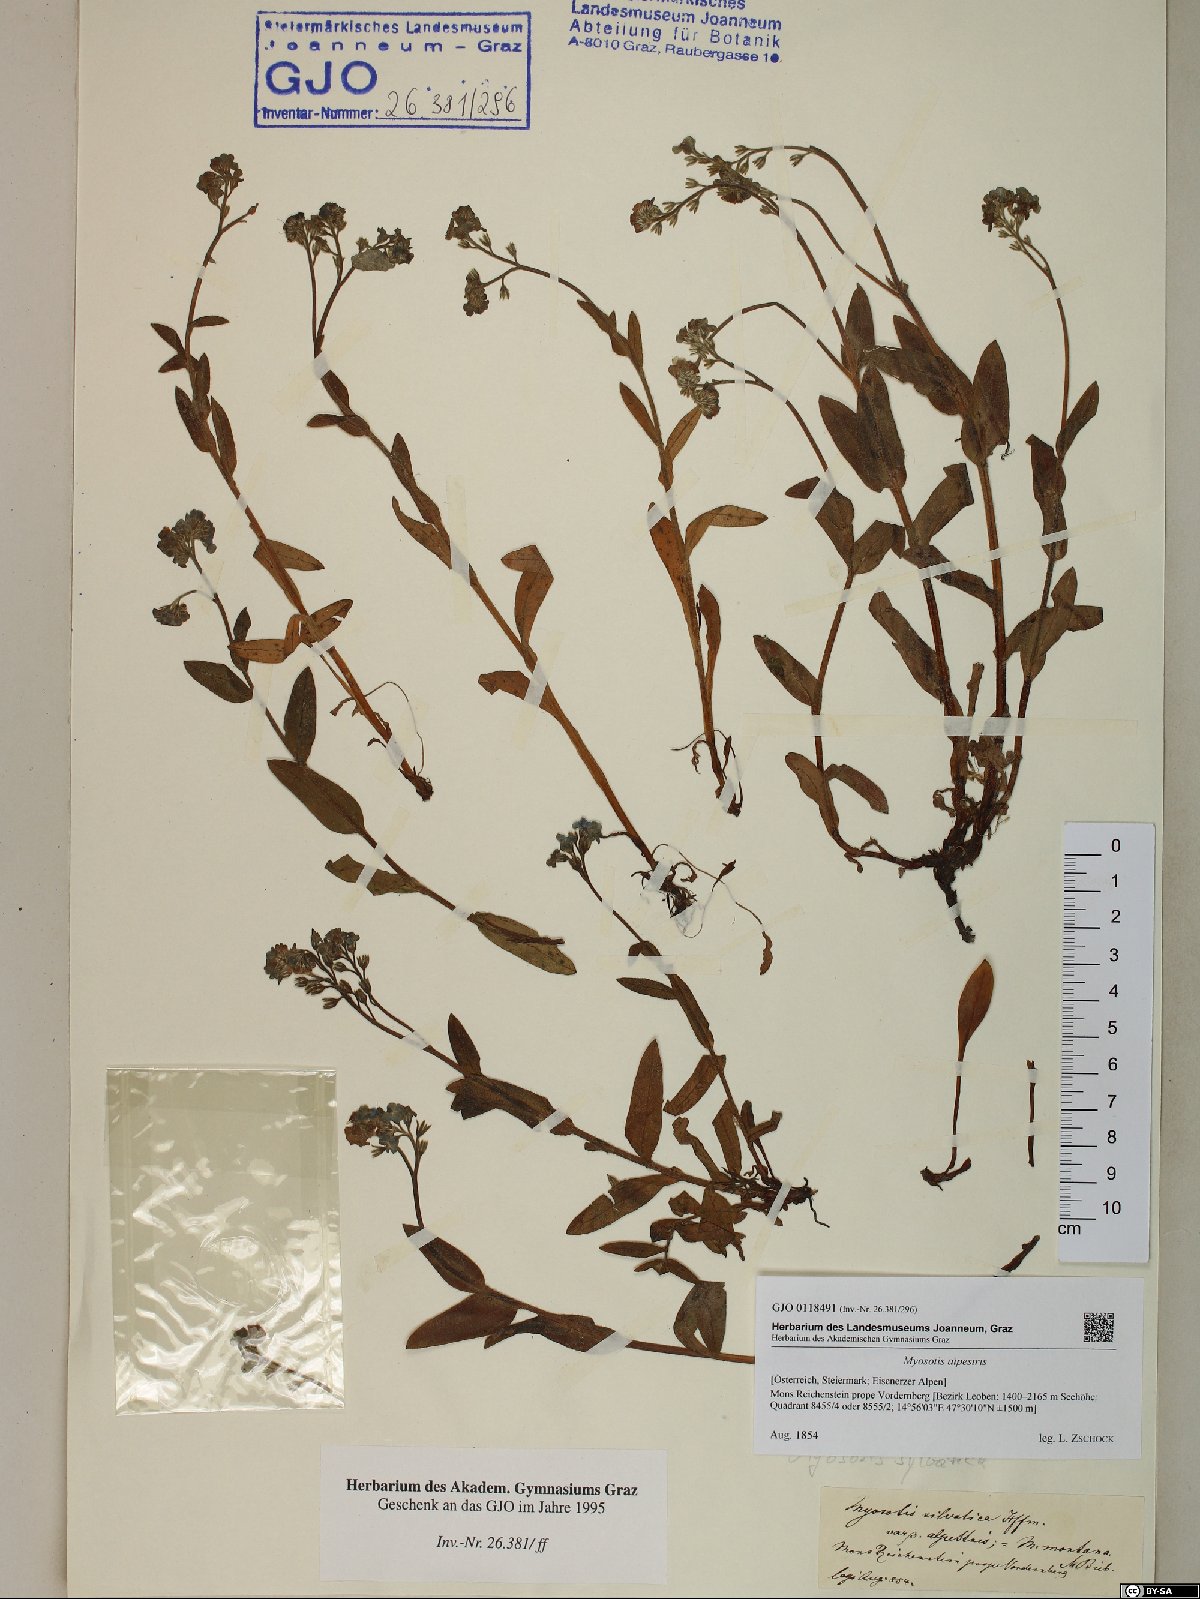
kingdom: Plantae
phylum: Tracheophyta
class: Magnoliopsida
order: Boraginales
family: Boraginaceae
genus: Myosotis
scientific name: Myosotis alpestris
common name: Alpine forget-me-not
